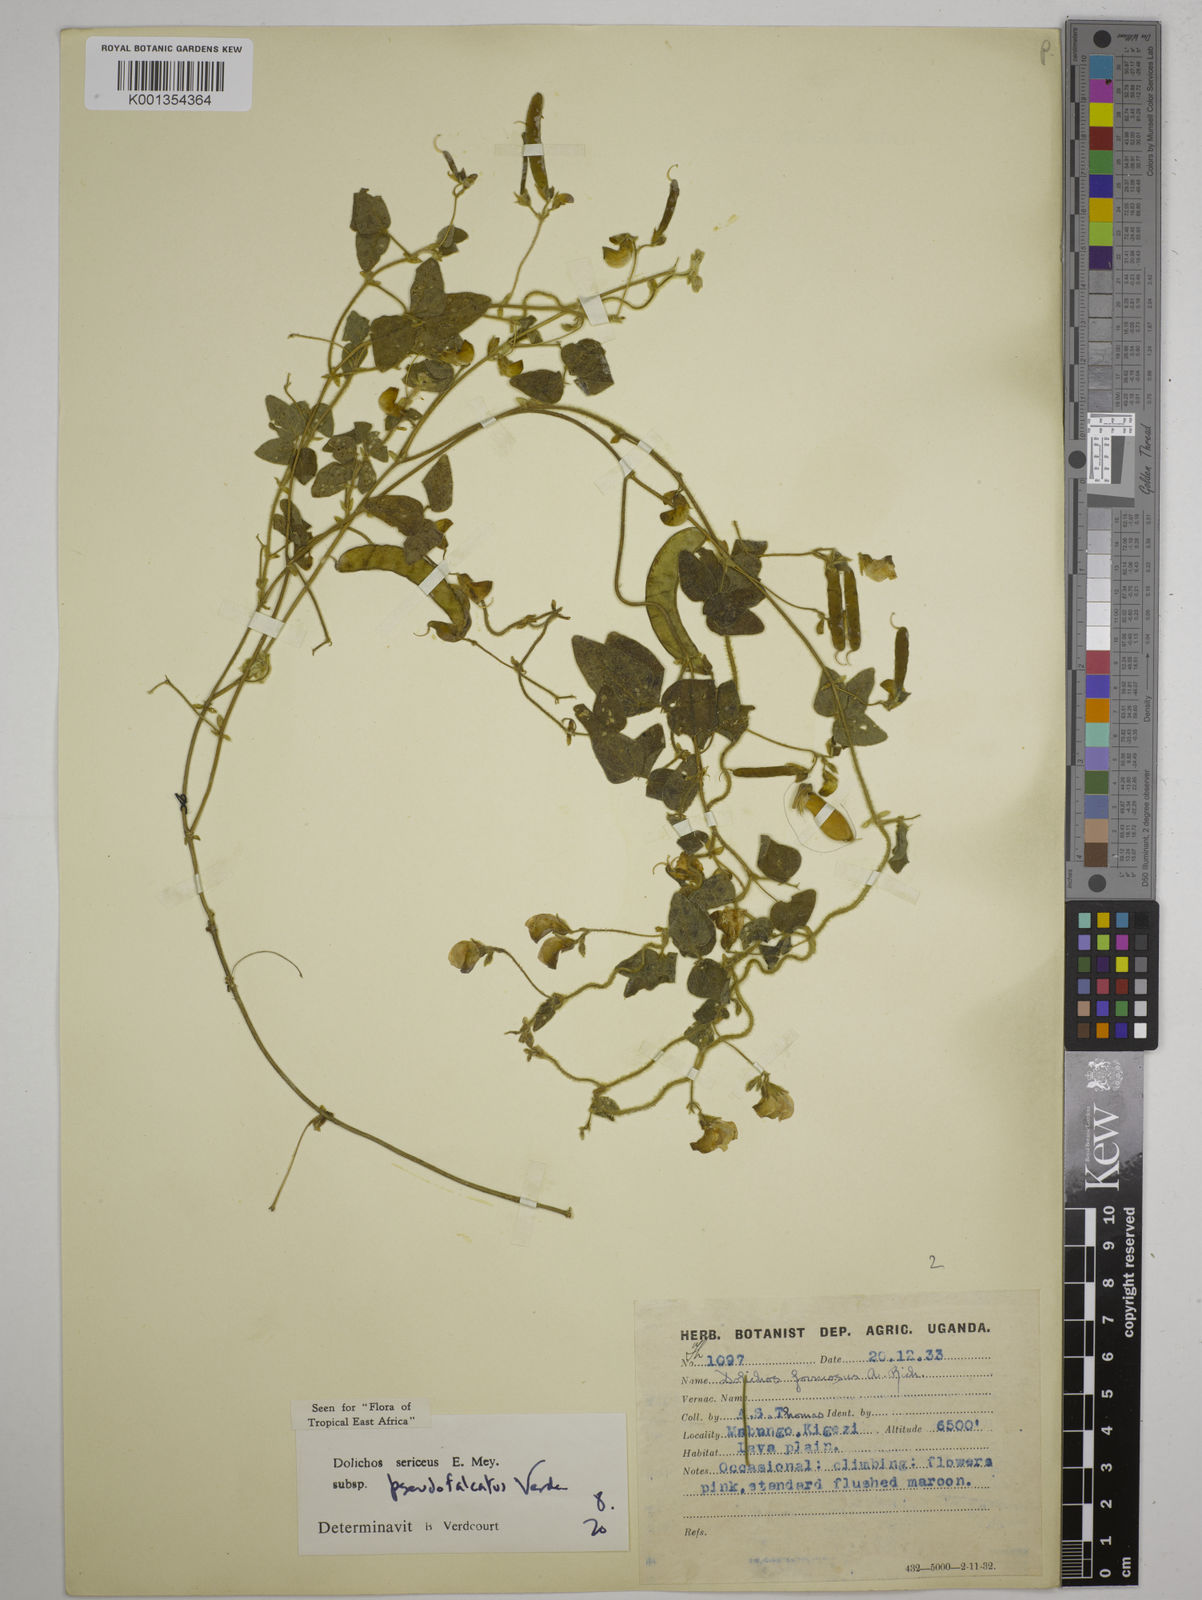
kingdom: Plantae
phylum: Tracheophyta
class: Magnoliopsida
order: Fabales
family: Fabaceae
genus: Dolichos
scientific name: Dolichos
